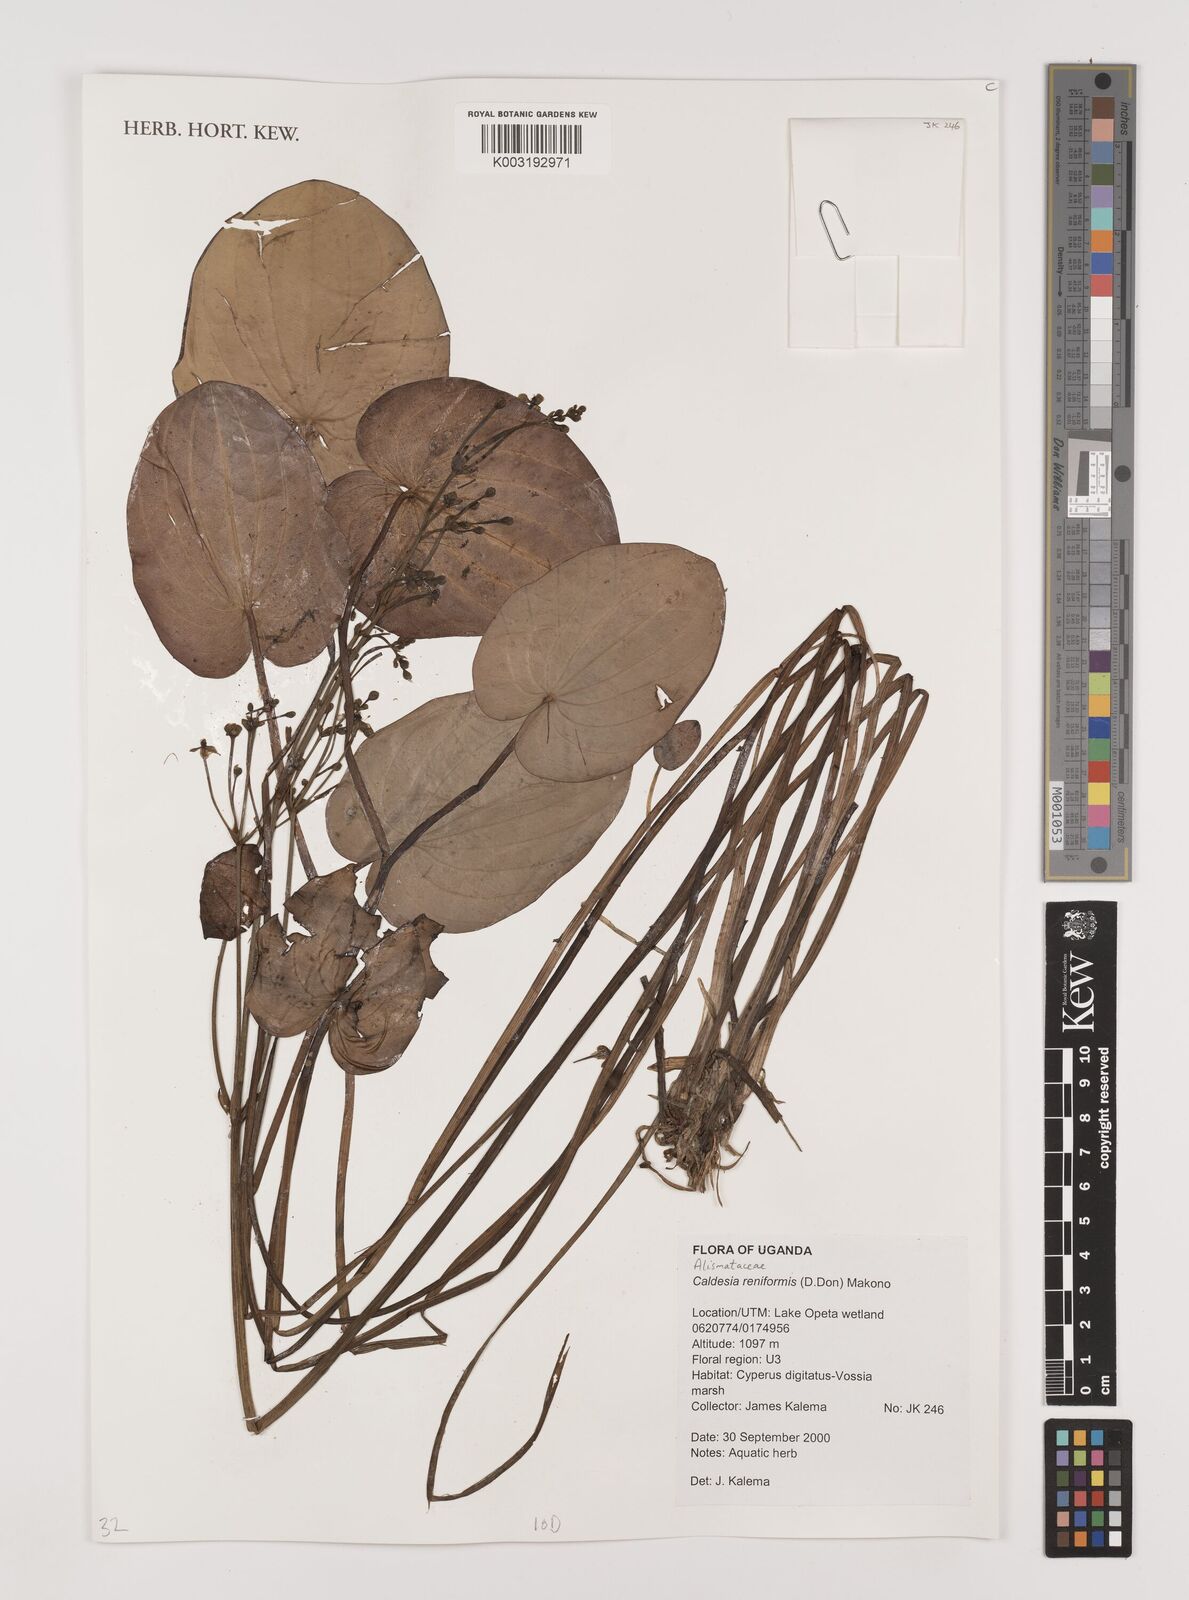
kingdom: Plantae
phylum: Tracheophyta
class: Liliopsida
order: Alismatales
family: Alismataceae
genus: Caldesia
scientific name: Caldesia parnassifolia
